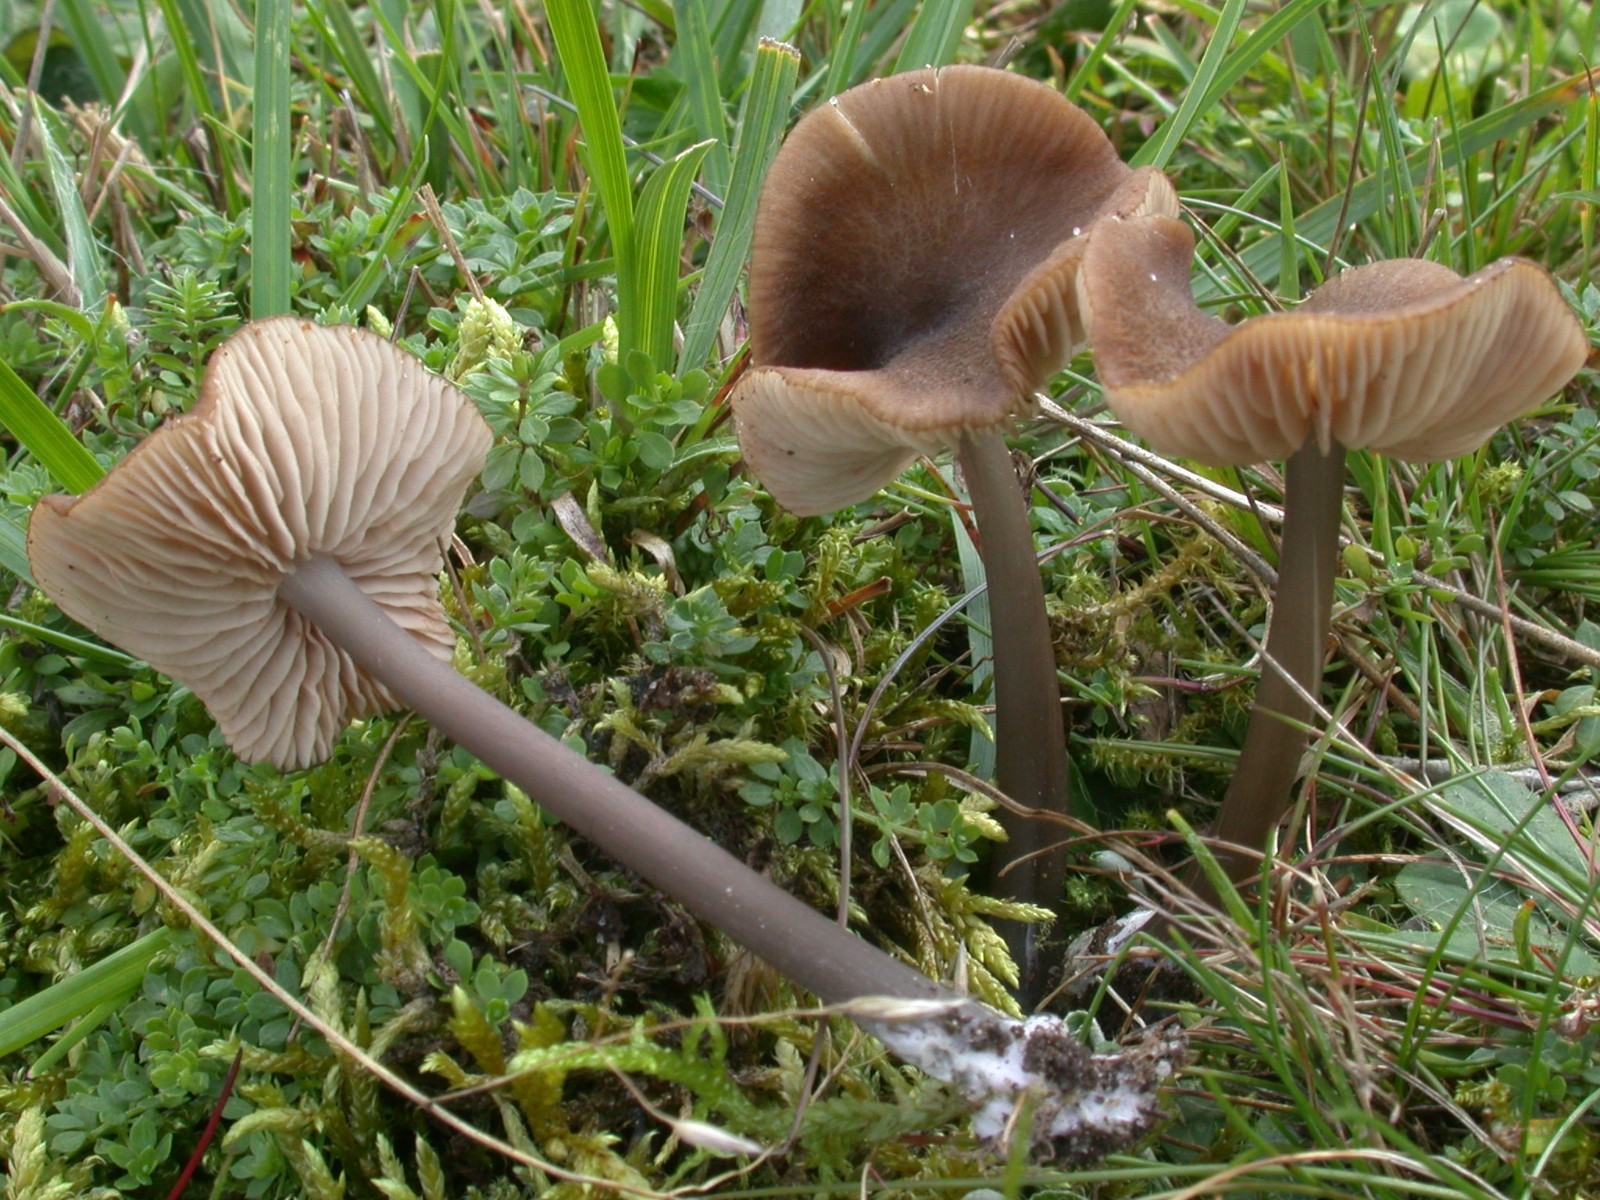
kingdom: Fungi
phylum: Basidiomycota
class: Agaricomycetes
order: Agaricales
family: Entolomataceae
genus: Entoloma
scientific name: Entoloma
